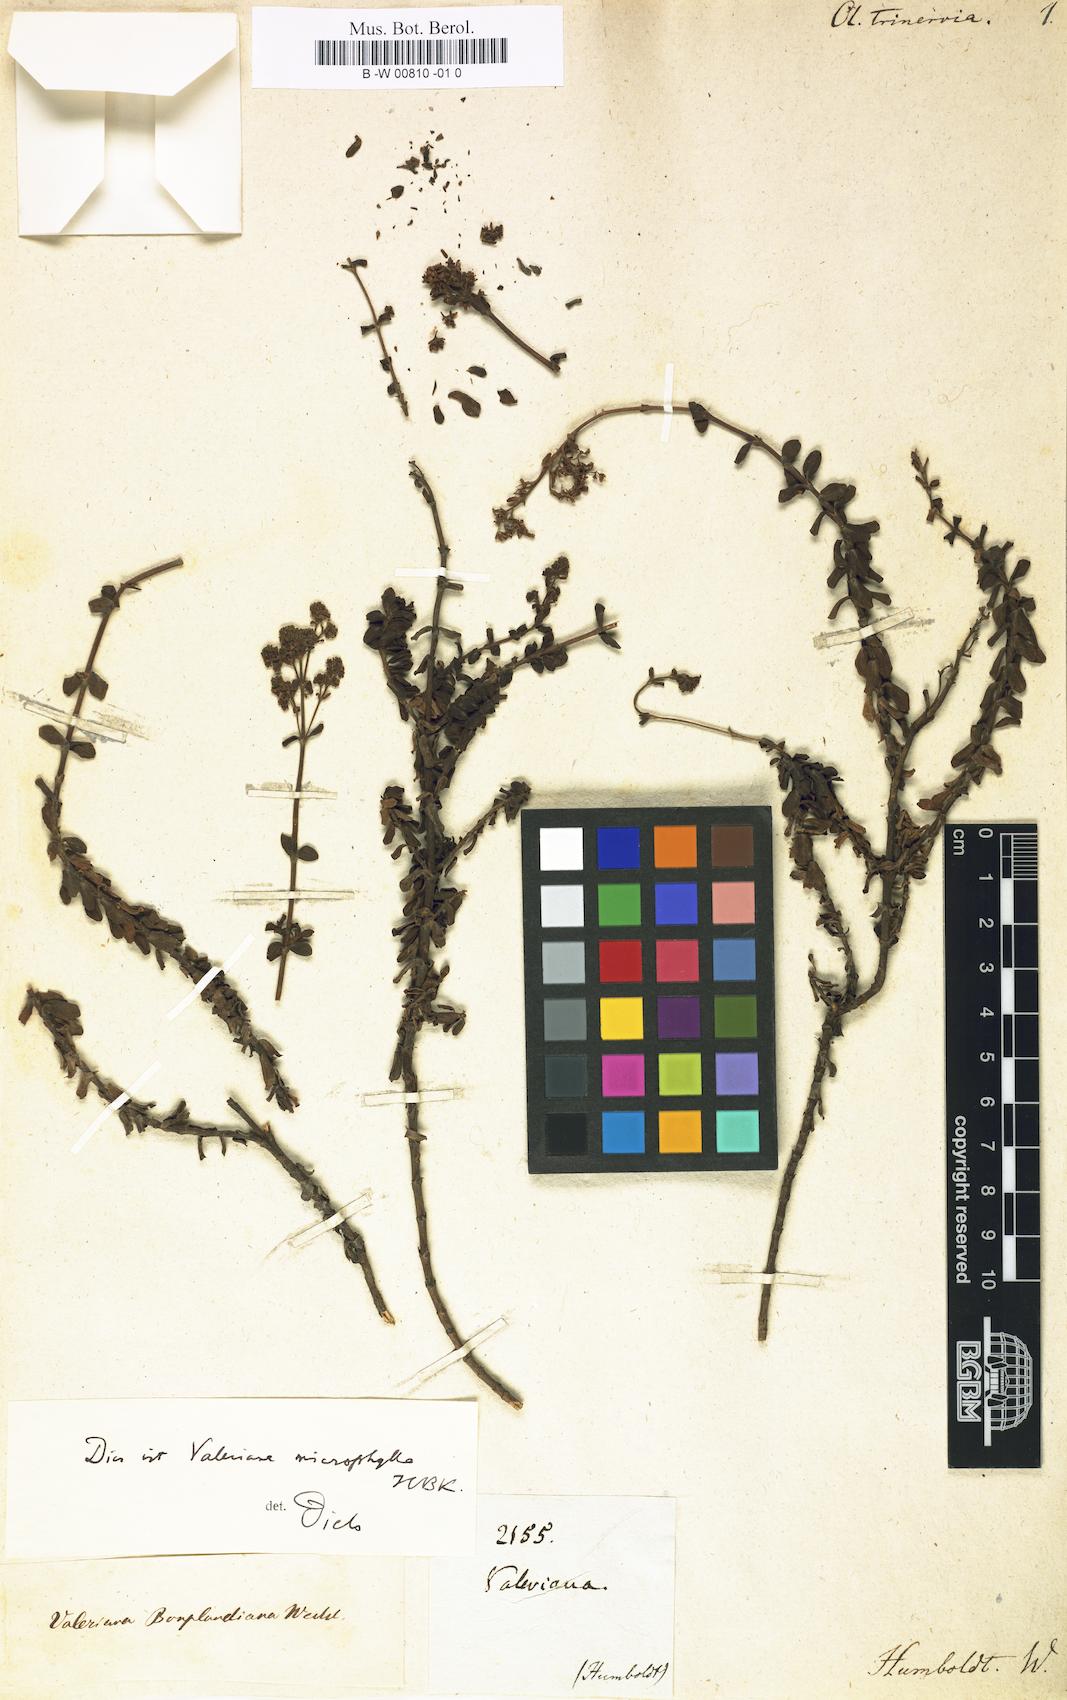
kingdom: Plantae
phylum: Tracheophyta
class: Magnoliopsida
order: Dipsacales
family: Caprifoliaceae
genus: Valeriana
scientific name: Valeriana
